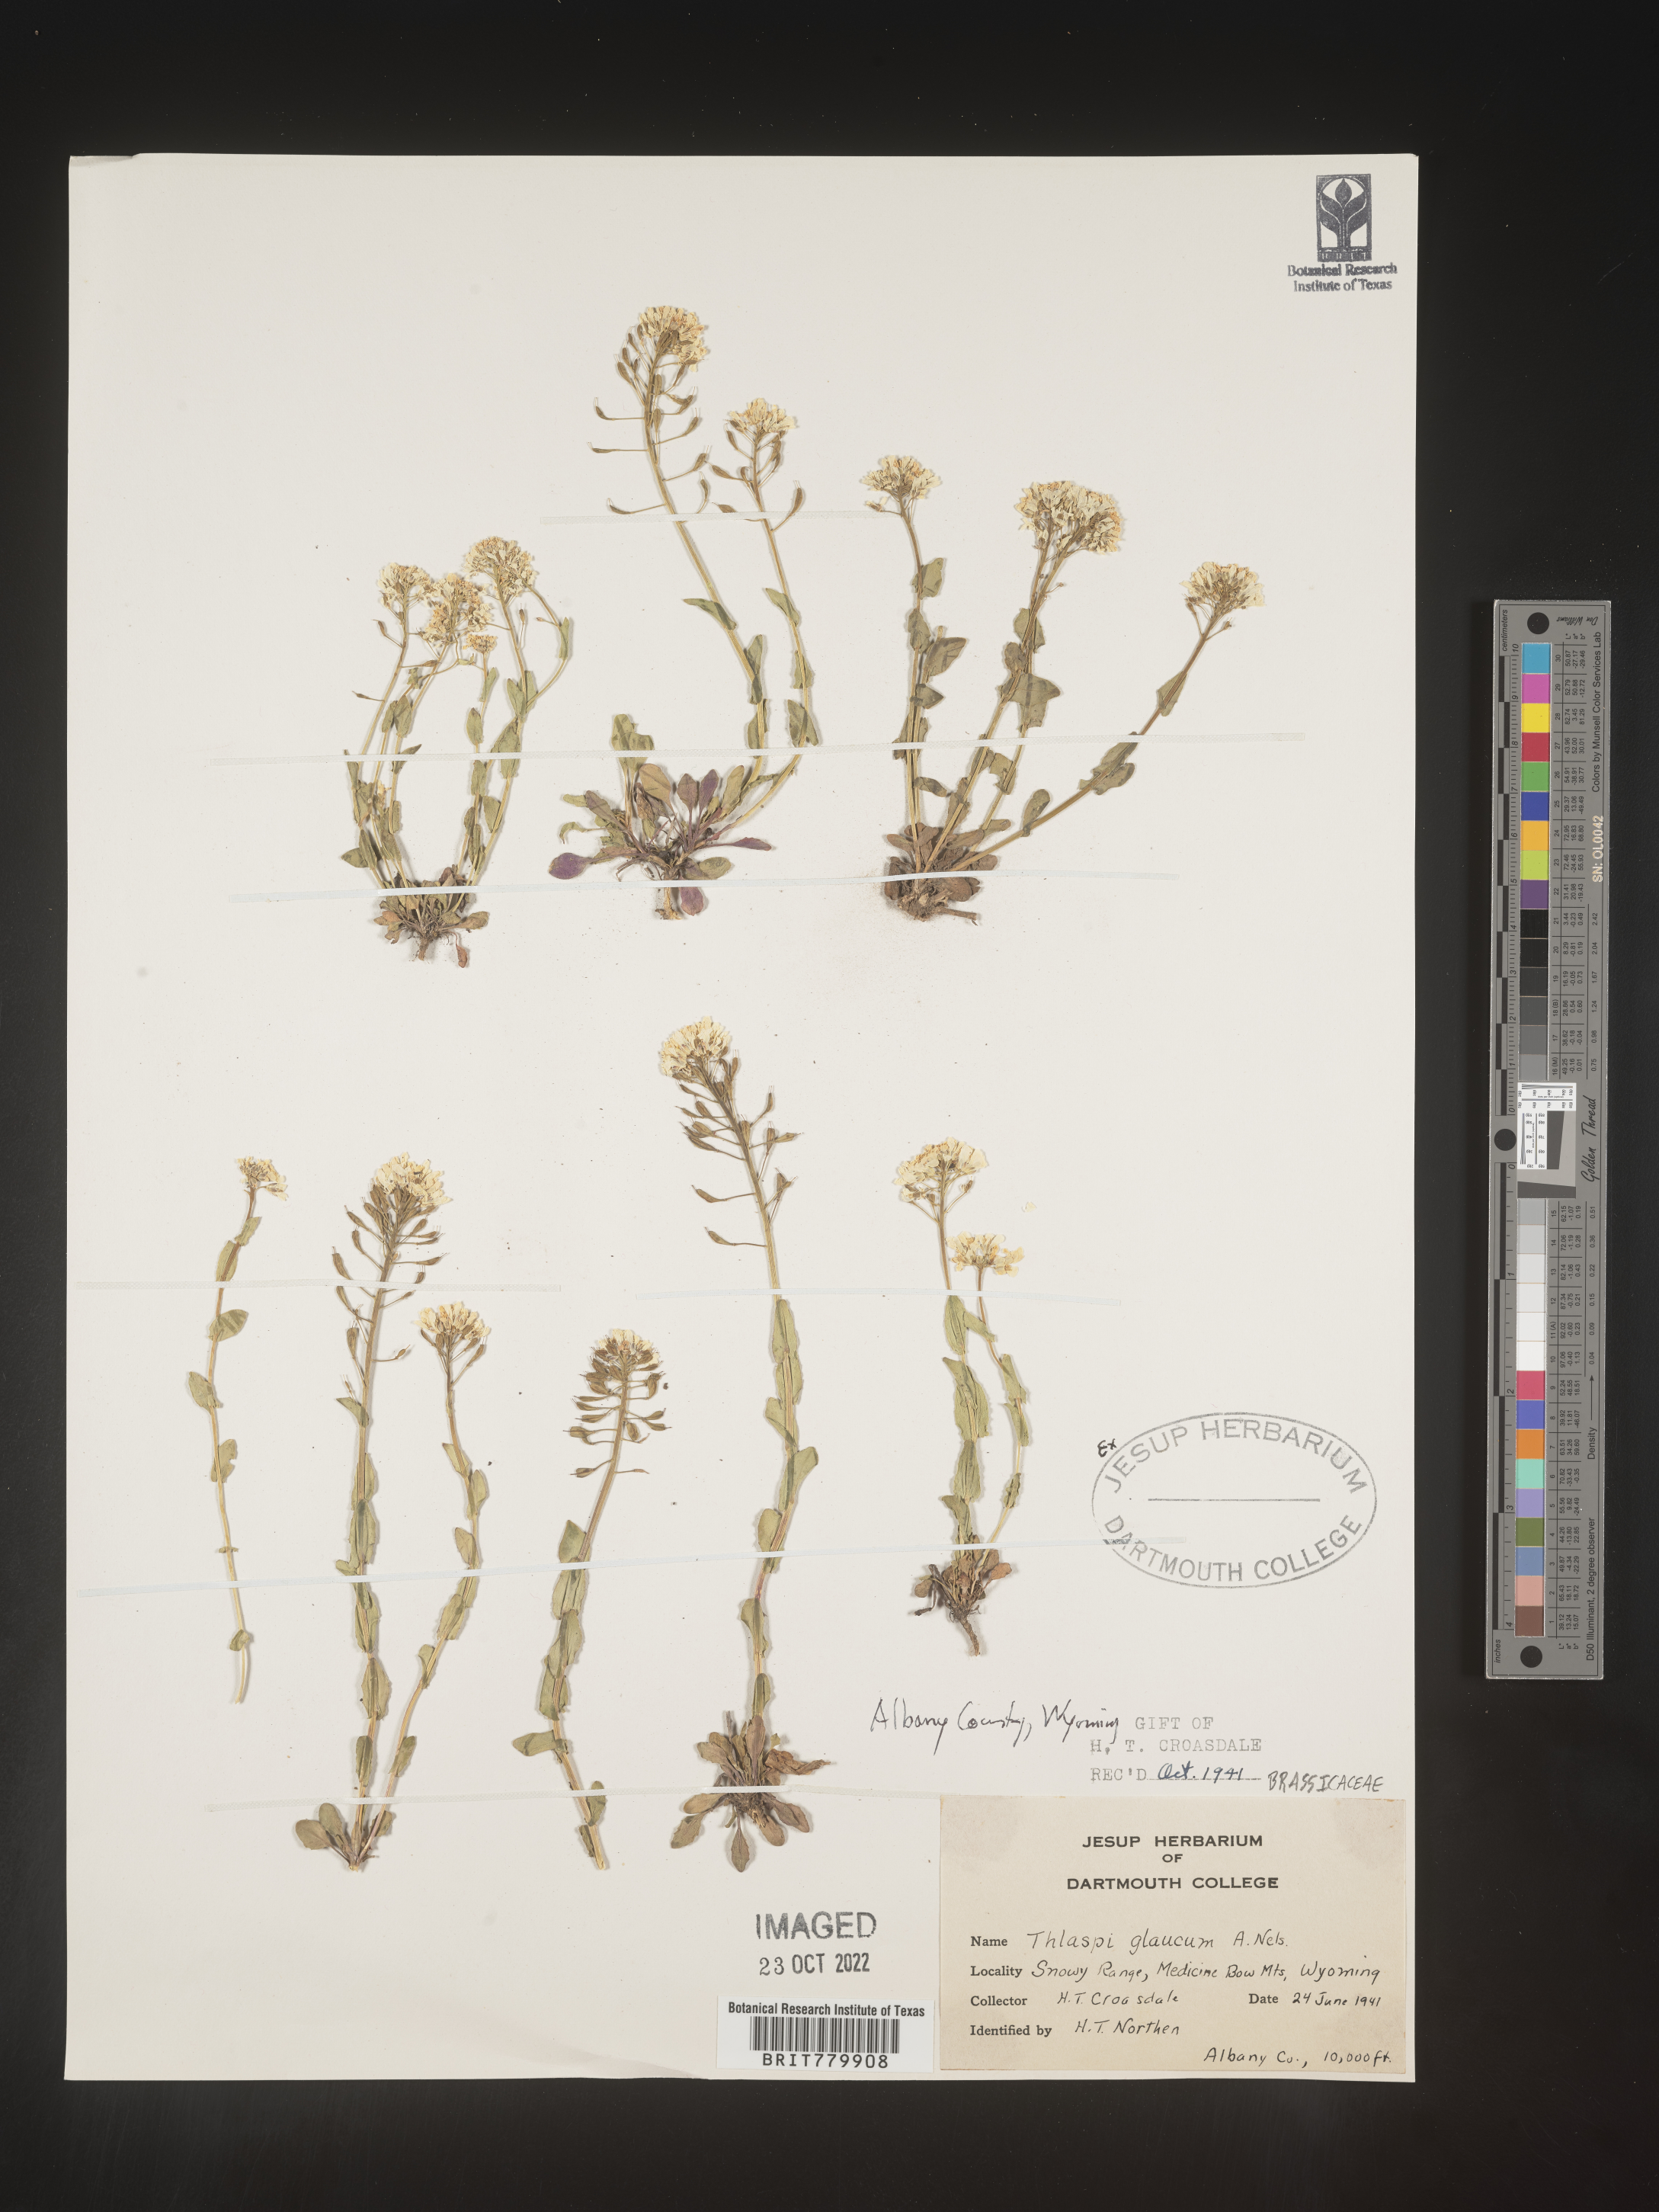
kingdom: Plantae
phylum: Tracheophyta
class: Magnoliopsida
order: Brassicales
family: Brassicaceae
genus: Thlaspi
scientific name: Thlaspi
